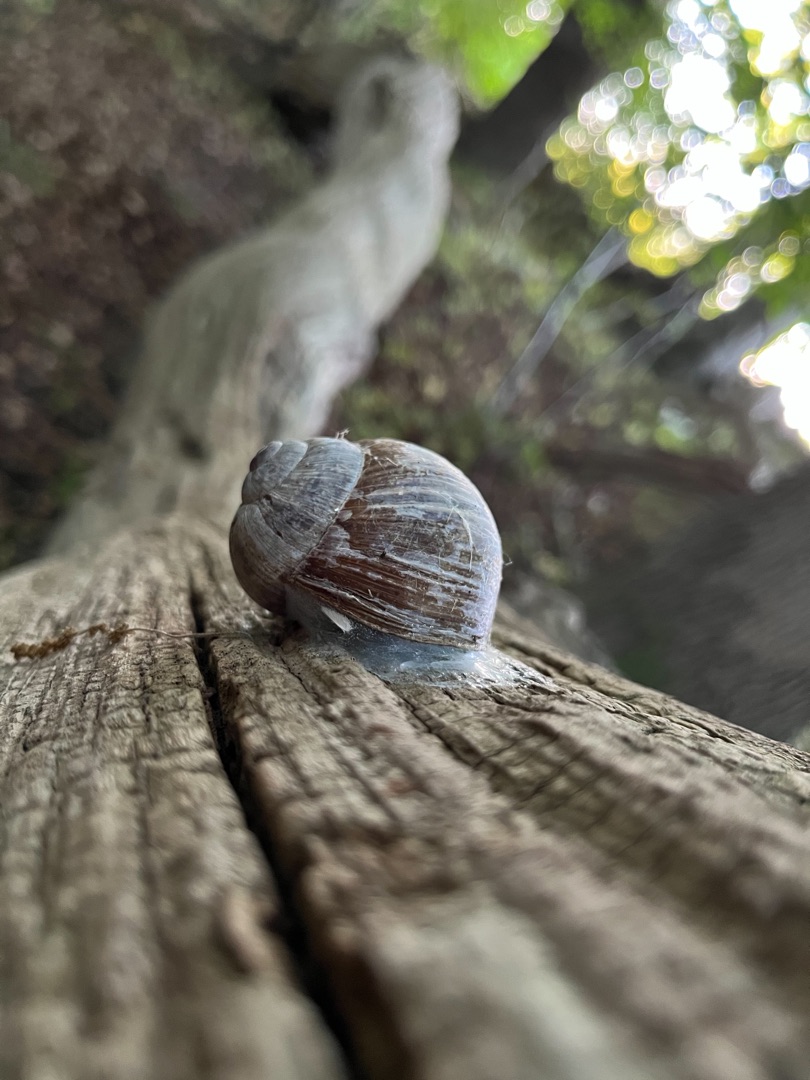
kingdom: Animalia
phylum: Mollusca
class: Gastropoda
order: Stylommatophora
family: Helicidae
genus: Helix
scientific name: Helix pomatia
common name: Vinbjergsnegl
